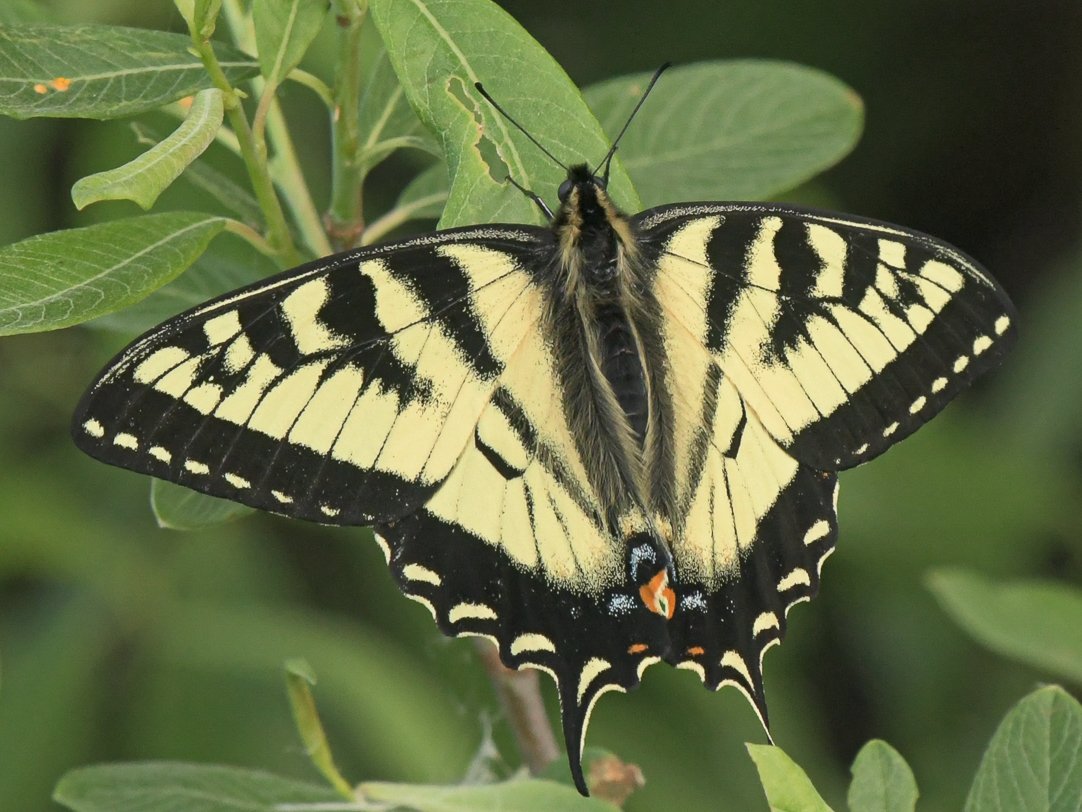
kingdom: Animalia
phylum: Arthropoda
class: Insecta
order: Lepidoptera
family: Papilionidae
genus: Pterourus
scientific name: Pterourus canadensis
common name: Canadian Tiger Swallowtail
